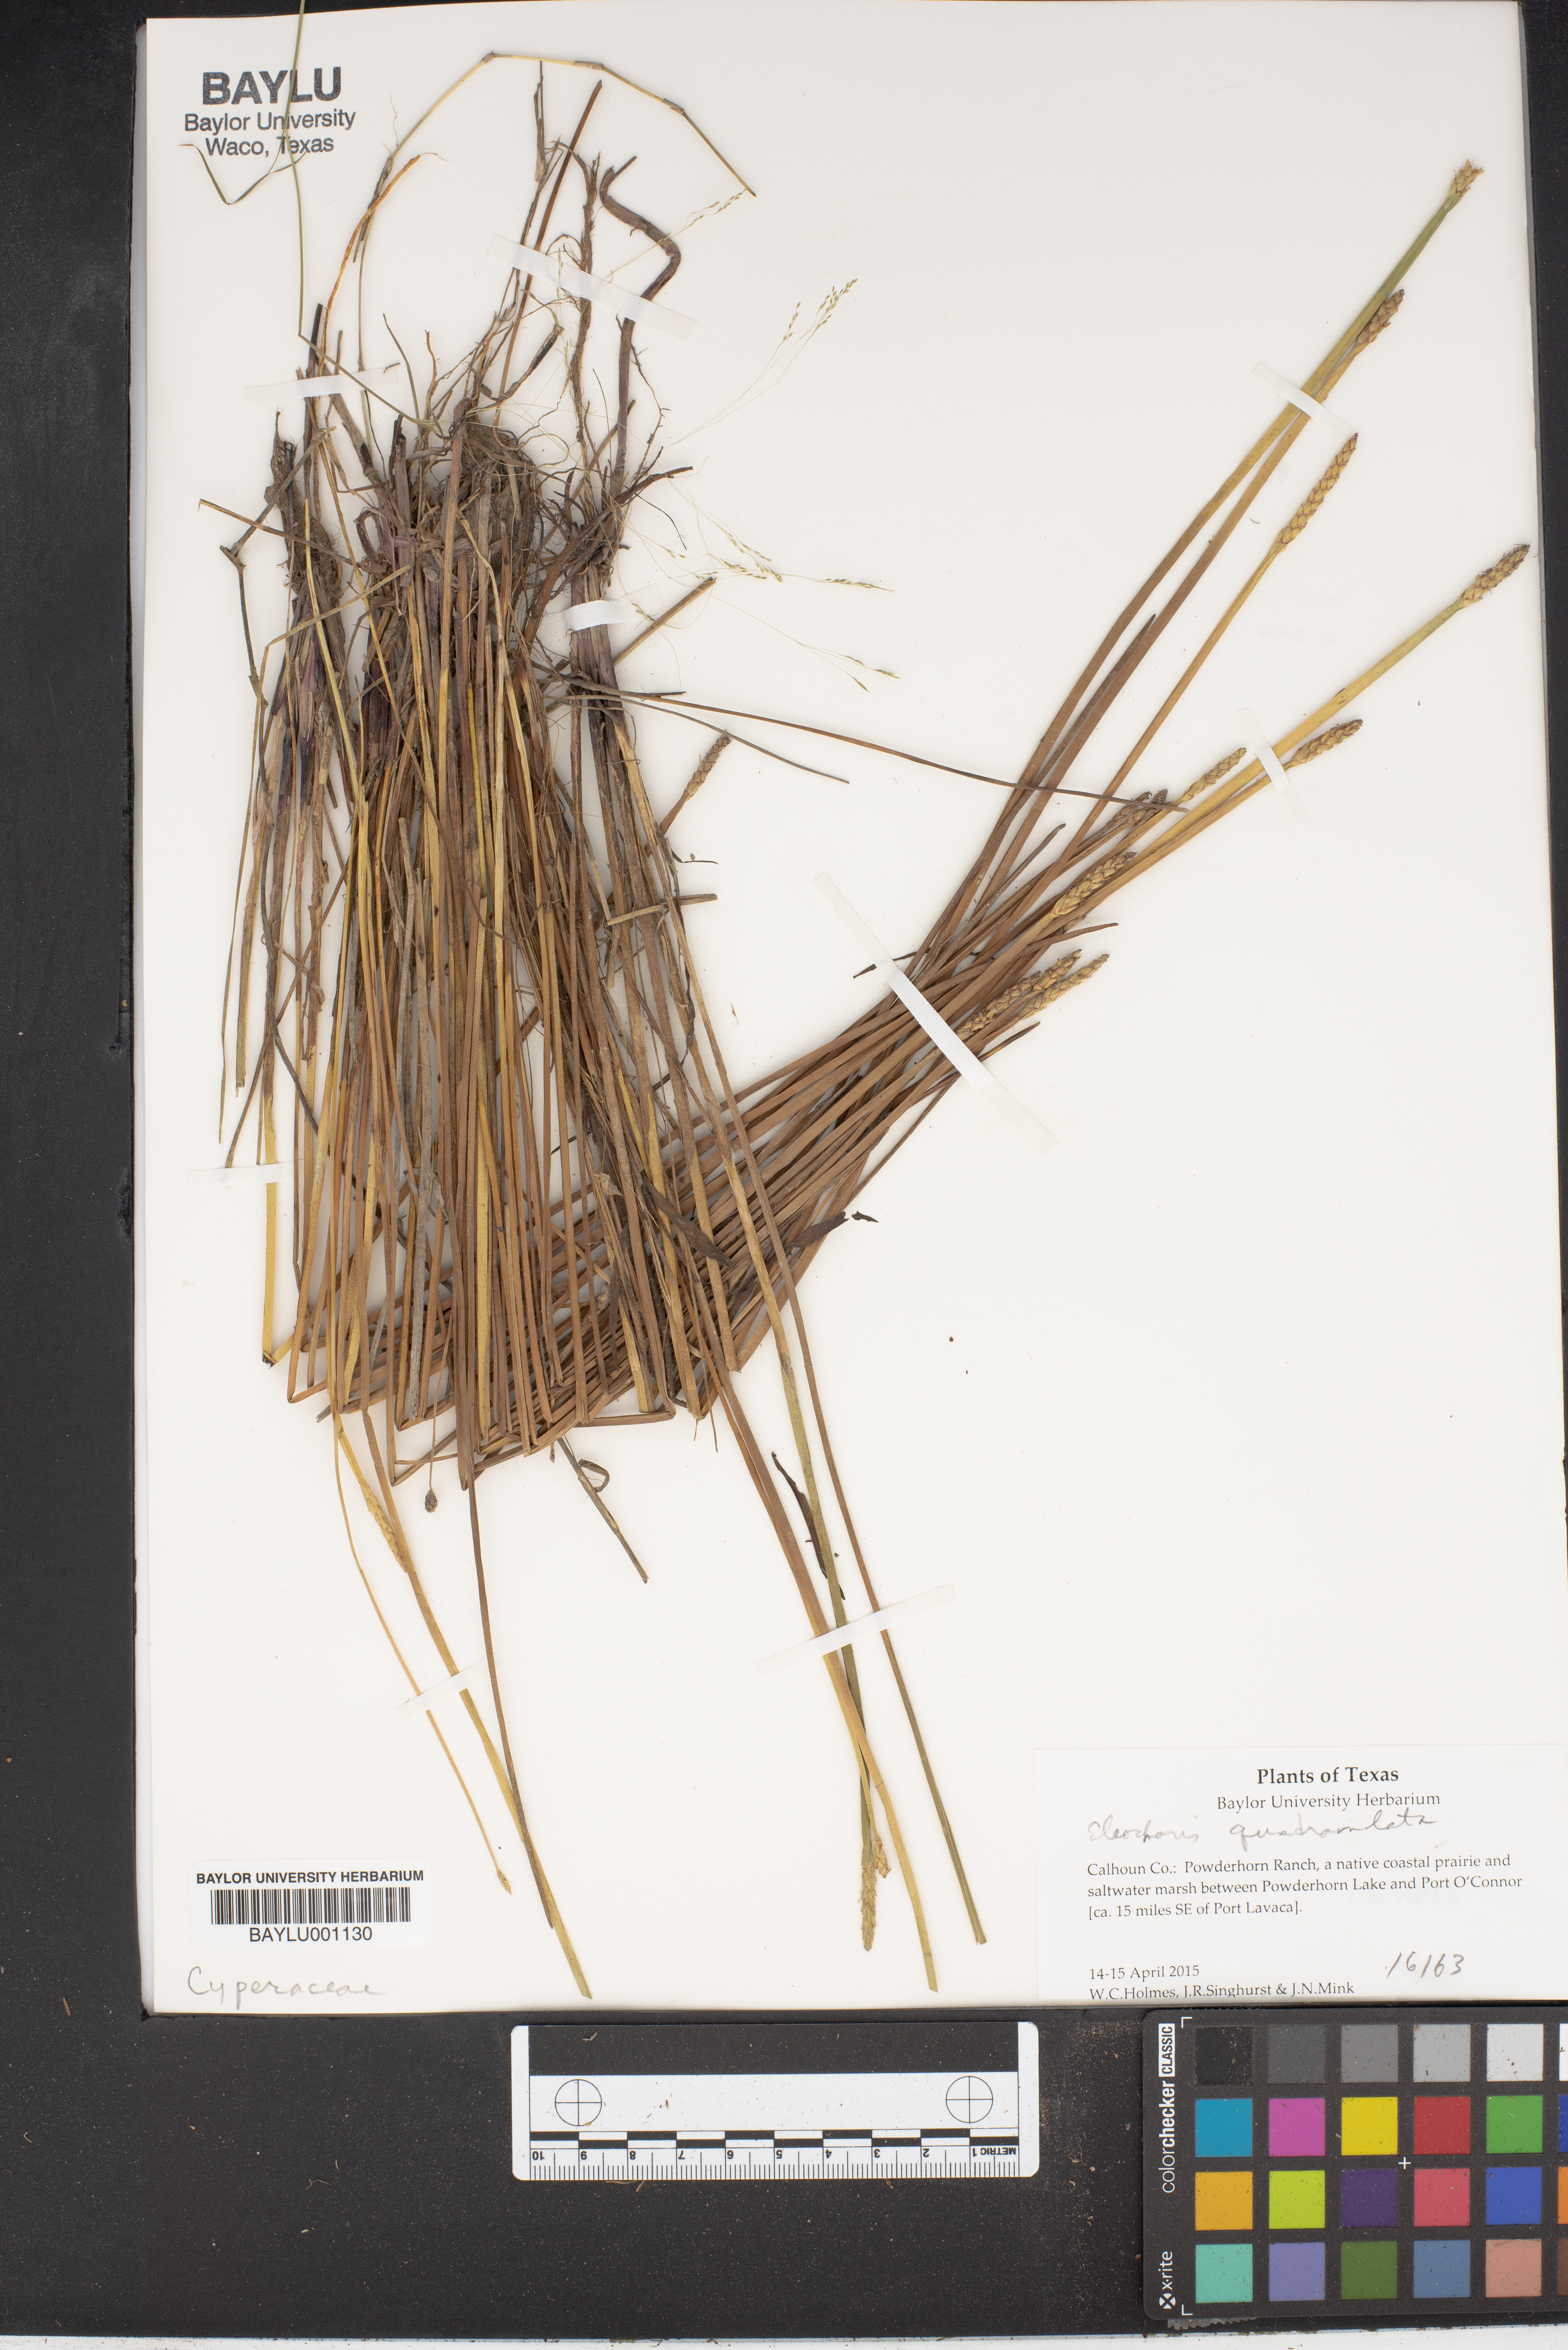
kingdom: Plantae
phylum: Tracheophyta
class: Liliopsida
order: Poales
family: Cyperaceae
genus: Eleocharis
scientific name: Eleocharis quadrangulata
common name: Square-stem spike-rush
